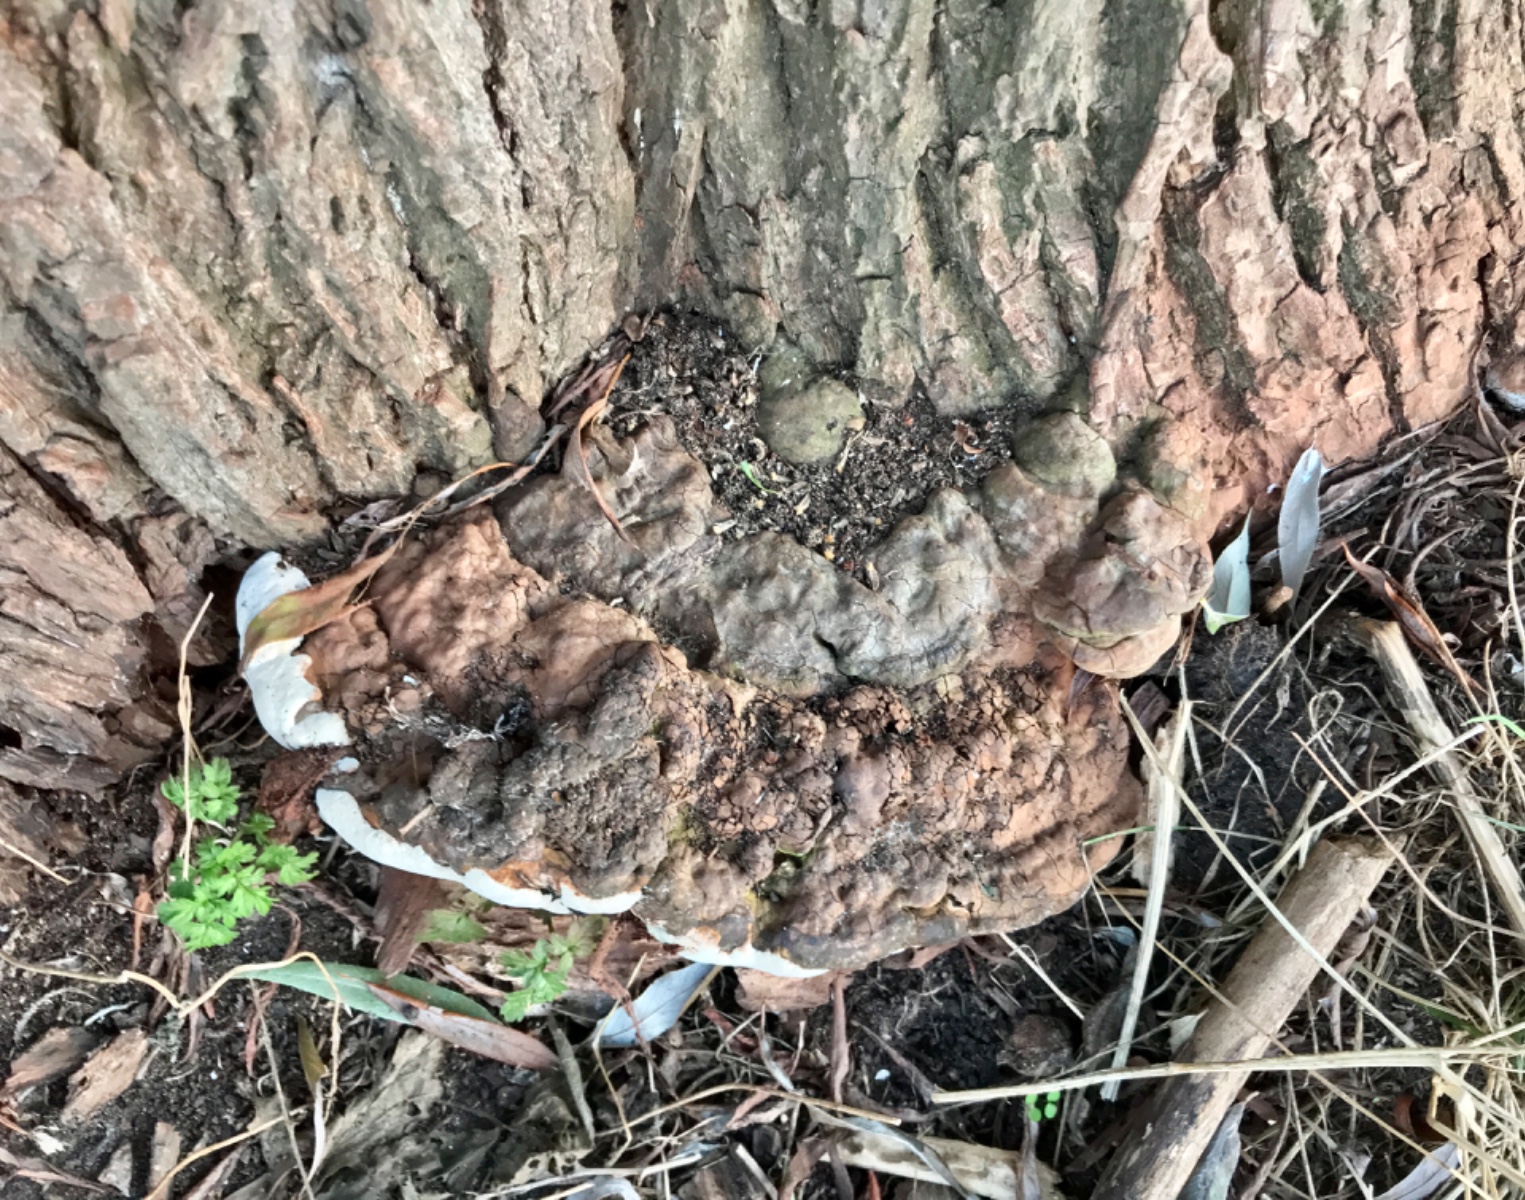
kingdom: Fungi
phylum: Basidiomycota
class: Agaricomycetes
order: Polyporales
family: Polyporaceae
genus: Ganoderma
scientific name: Ganoderma applanatum
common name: flad lakporesvamp
